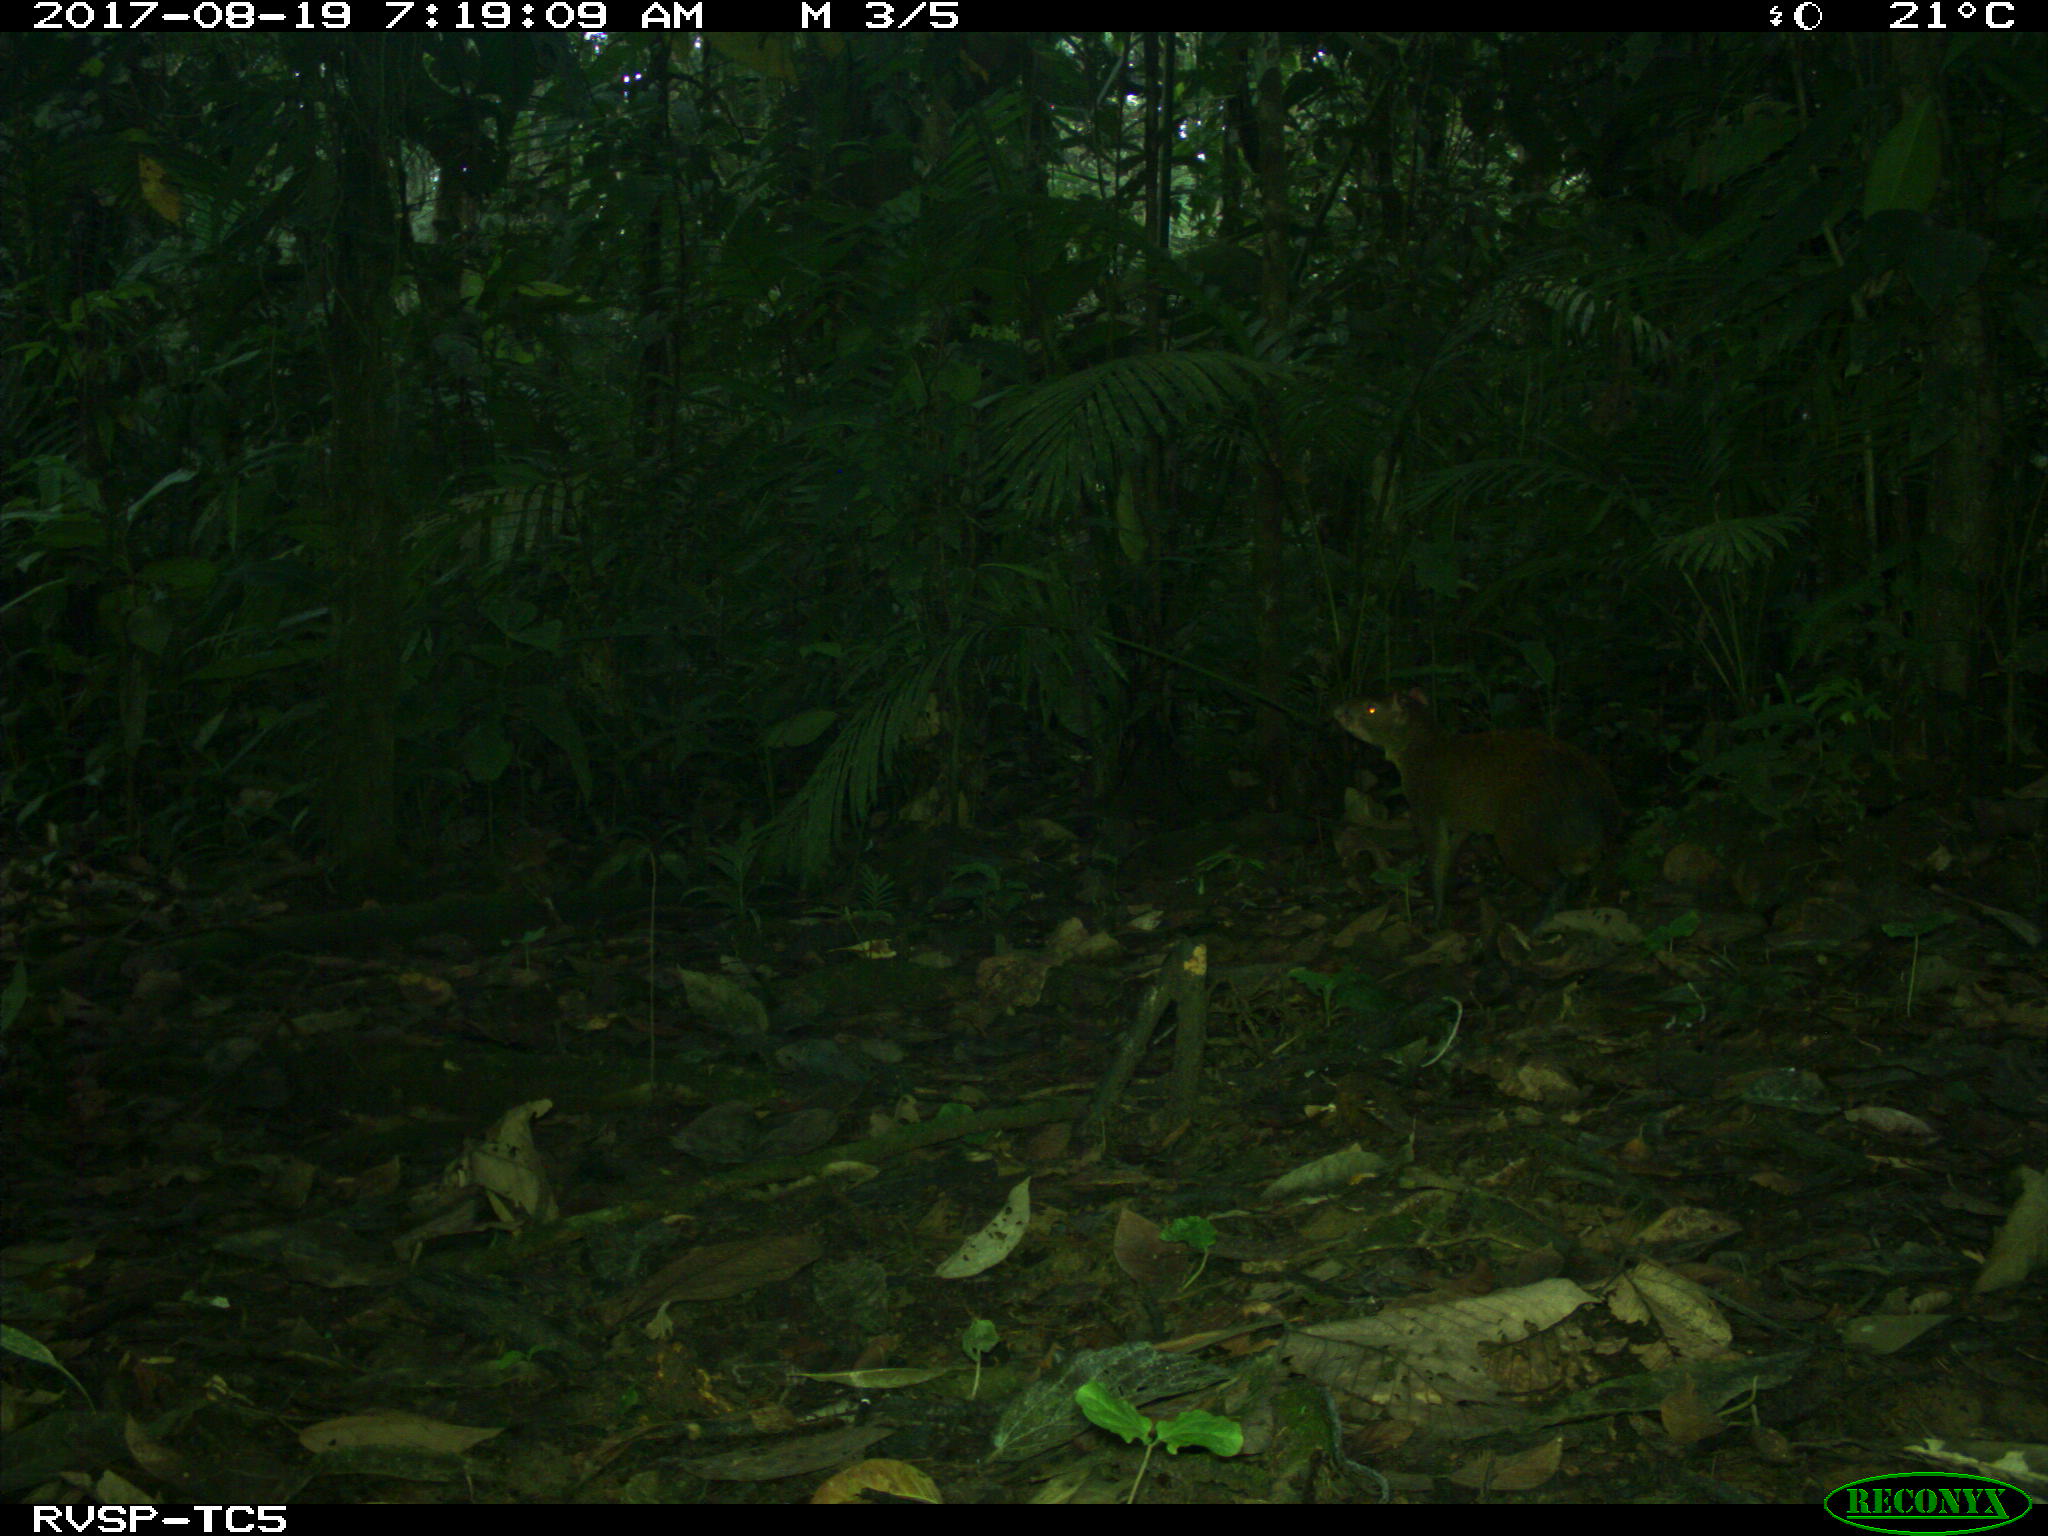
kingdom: Animalia
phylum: Chordata
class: Mammalia
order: Rodentia
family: Dasyproctidae
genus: Dasyprocta
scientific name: Dasyprocta punctata
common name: Central american agouti
